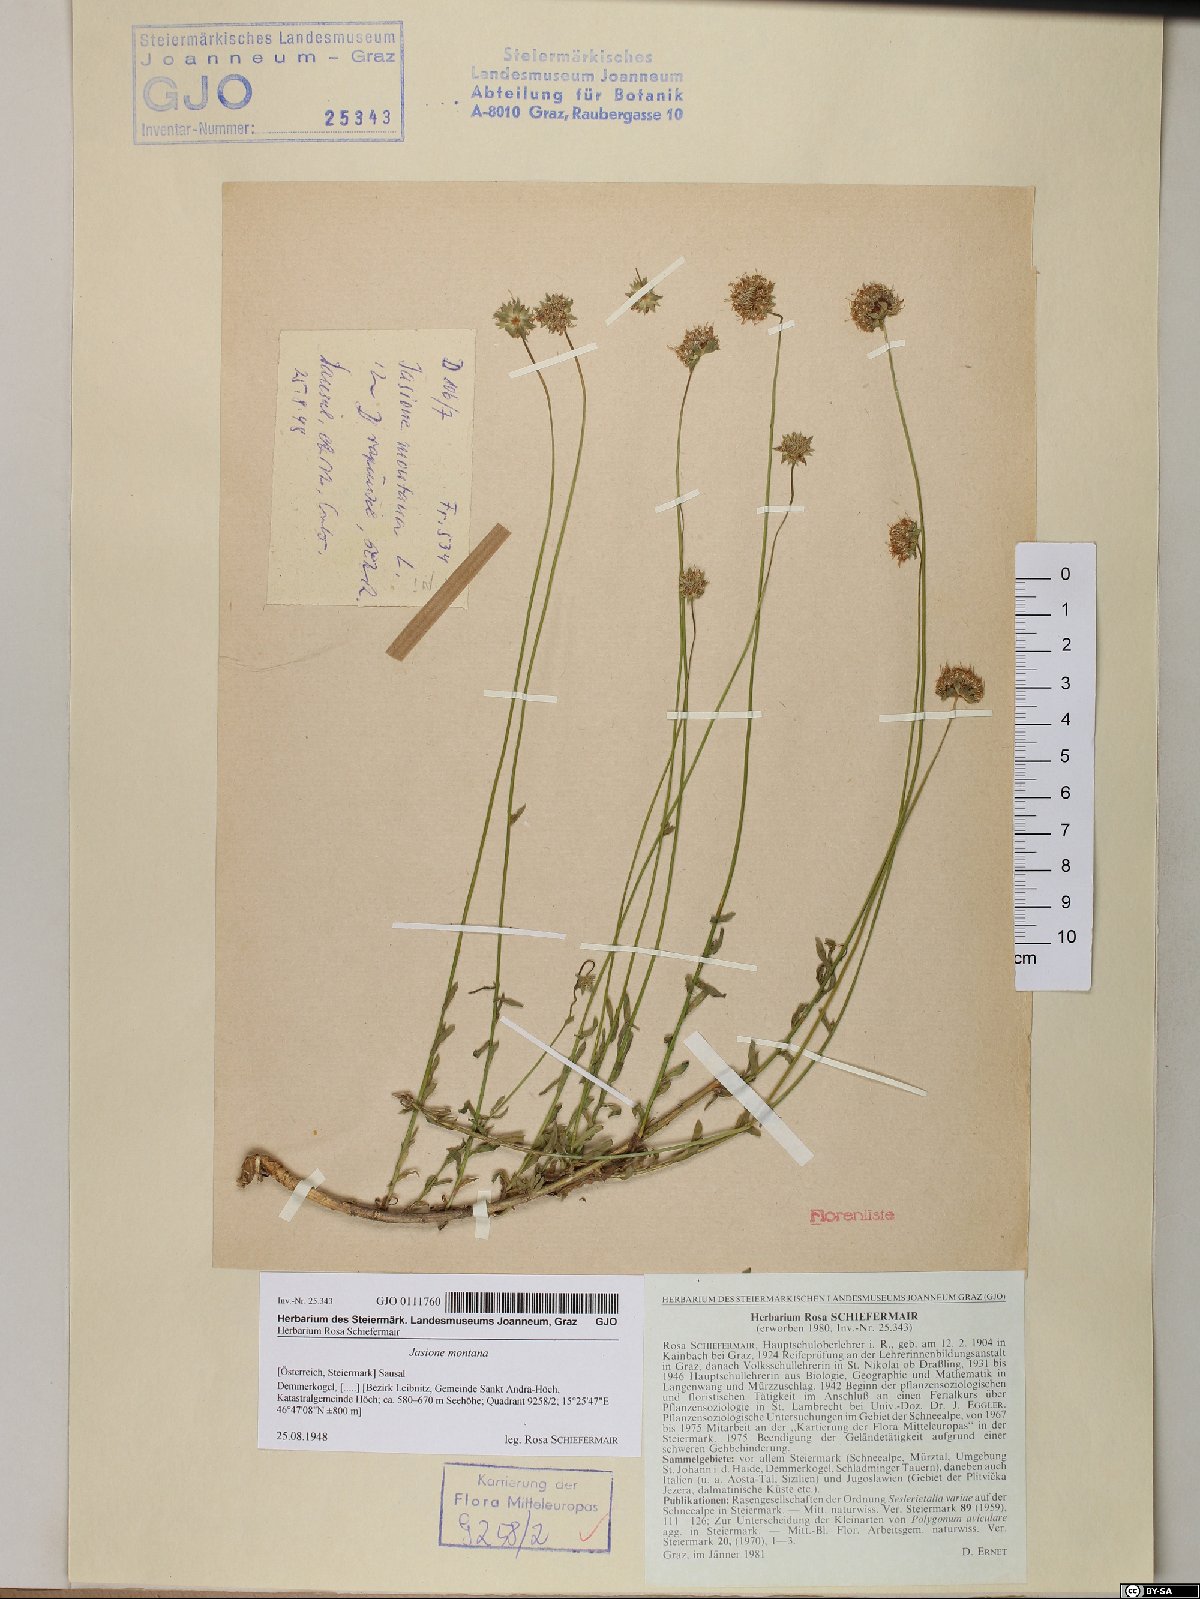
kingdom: Plantae
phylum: Tracheophyta
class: Magnoliopsida
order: Asterales
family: Campanulaceae
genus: Jasione
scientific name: Jasione montana
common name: Sheep's-bit
